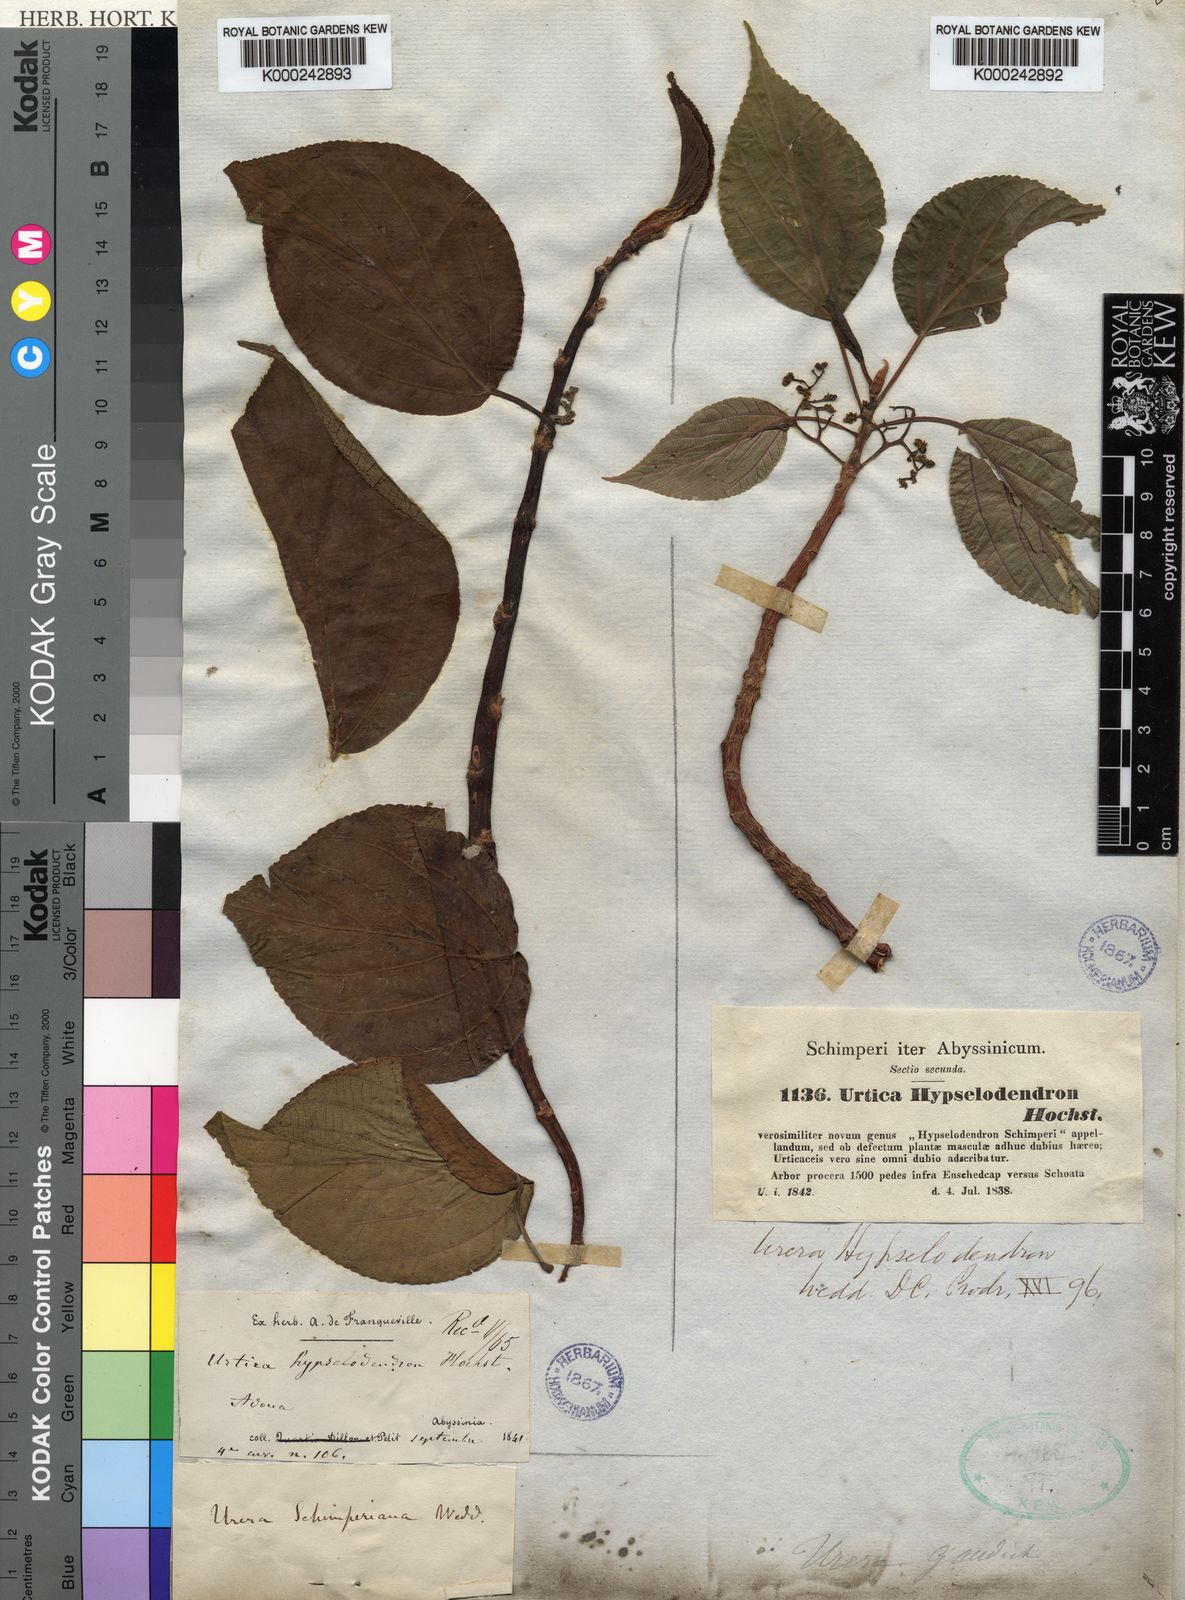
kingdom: Plantae
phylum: Tracheophyta
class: Magnoliopsida
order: Rosales
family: Urticaceae
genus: Scepocarpus
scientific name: Scepocarpus
